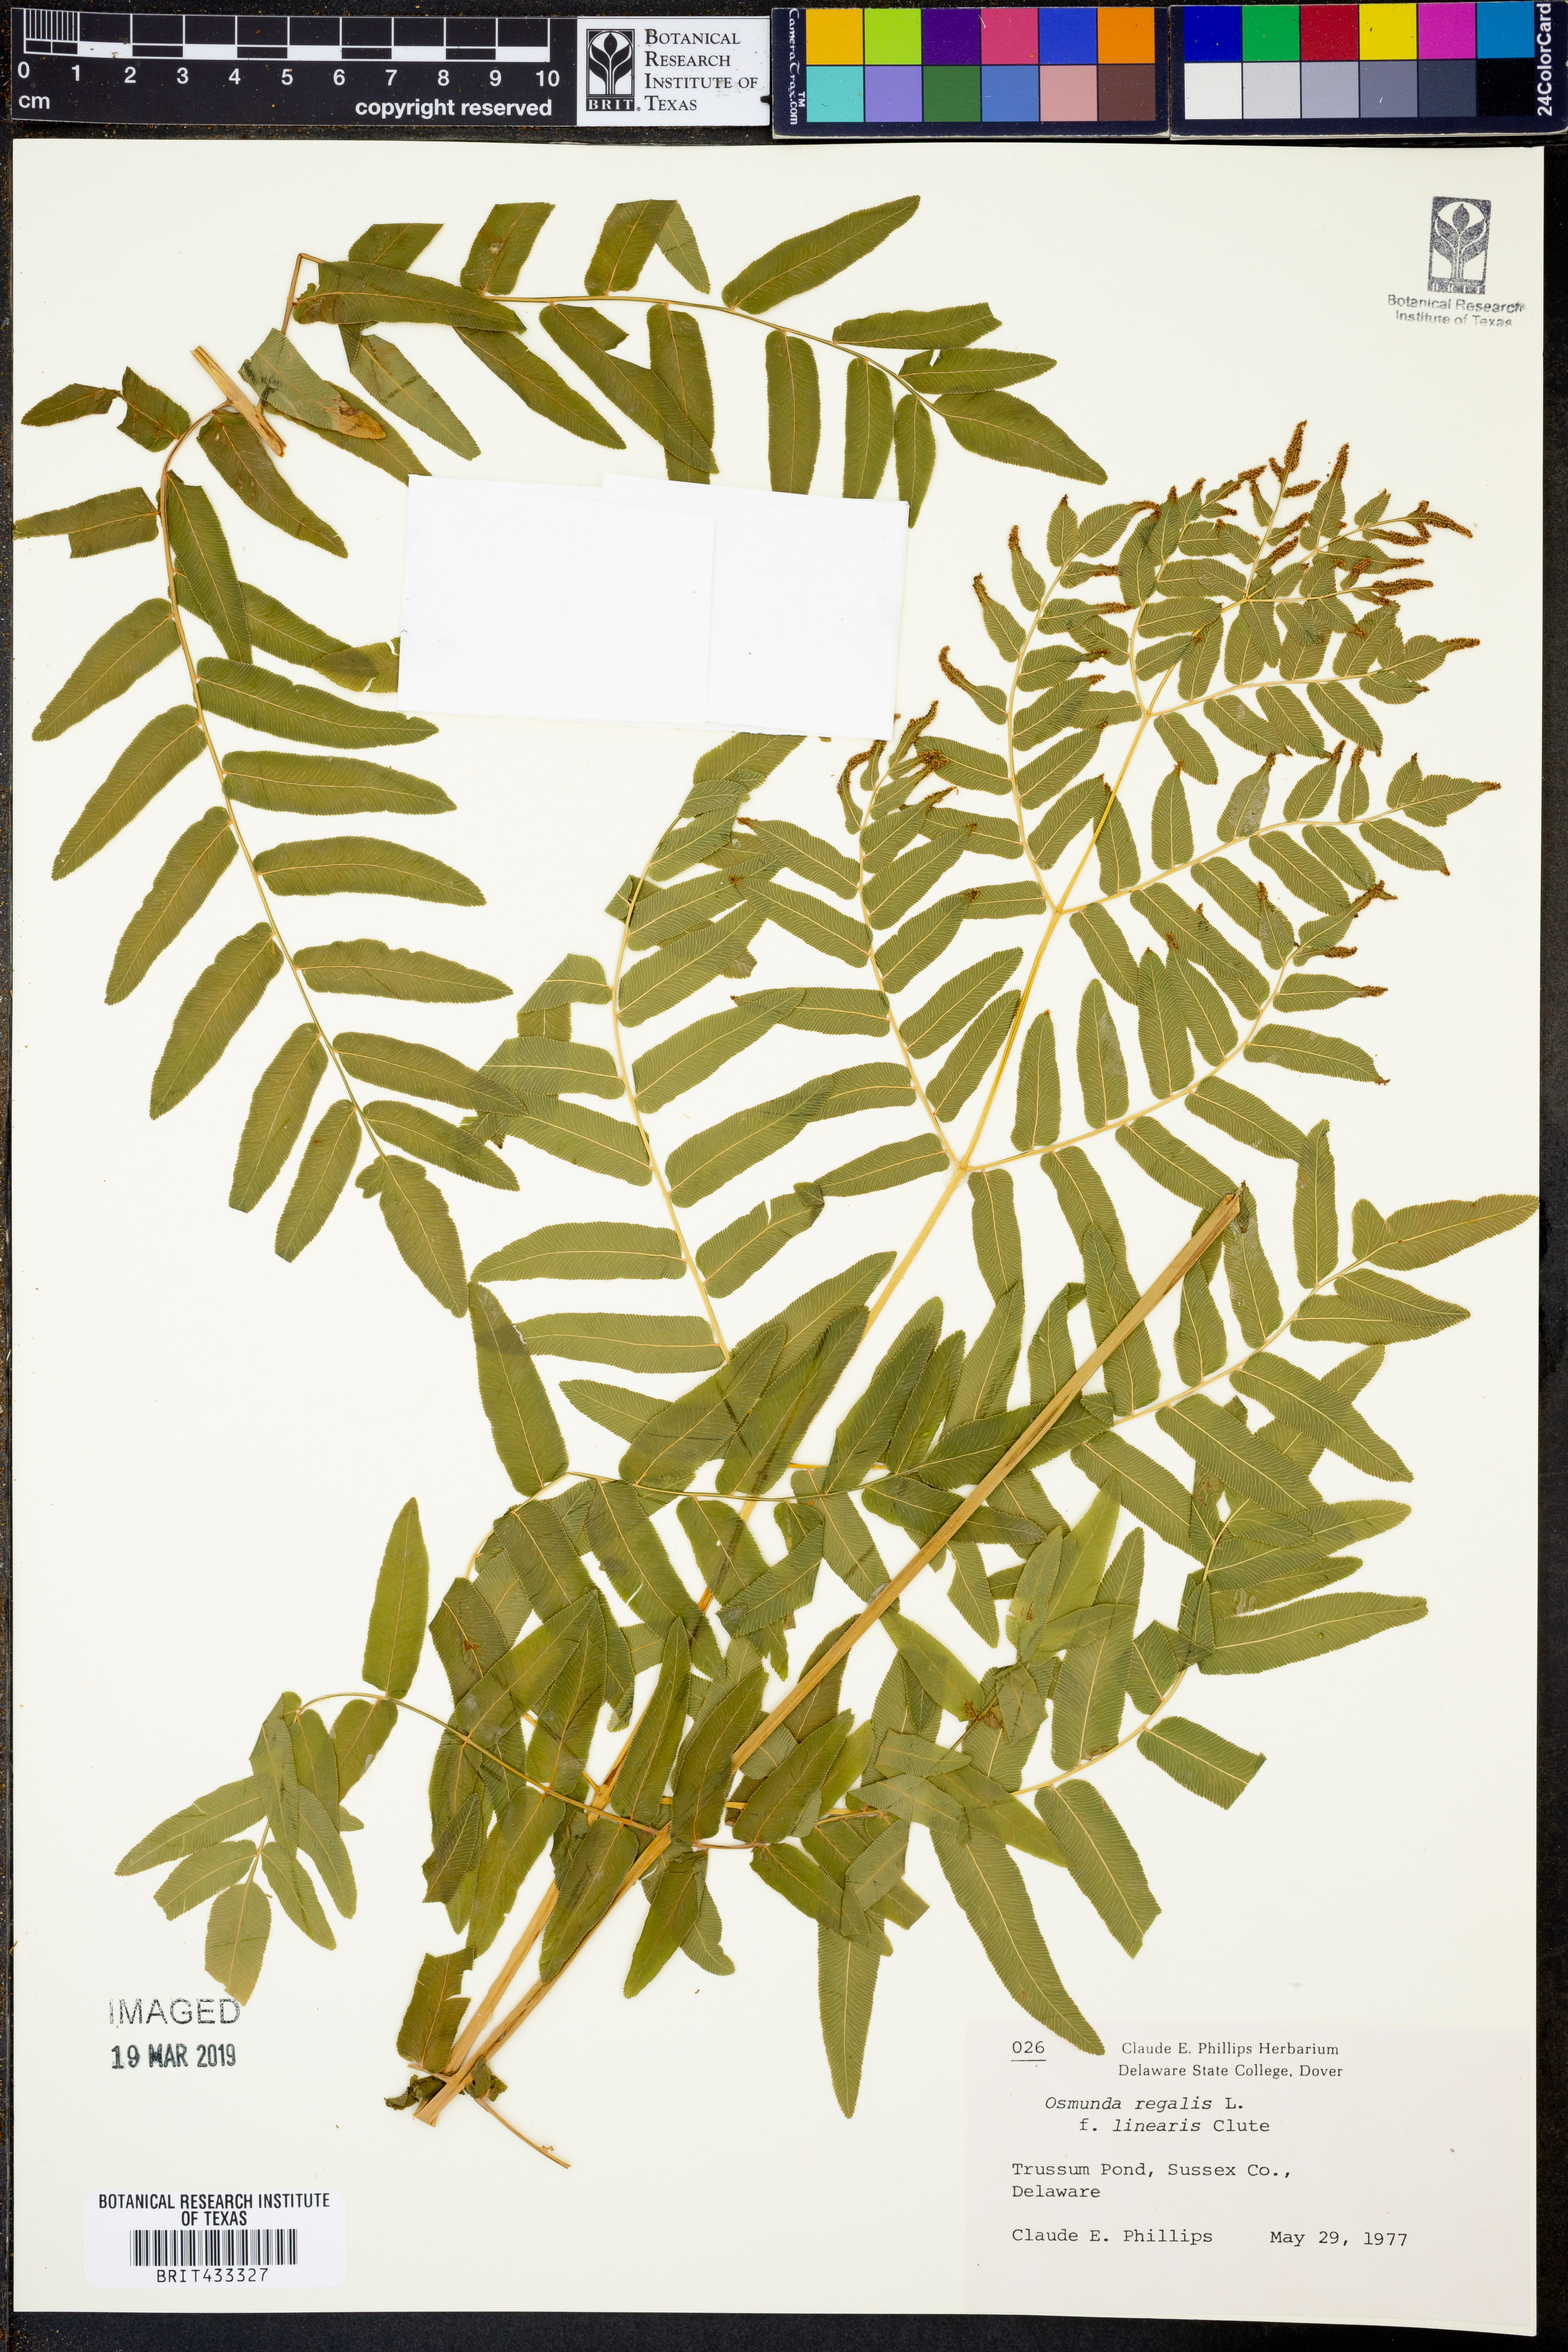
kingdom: Plantae
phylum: Tracheophyta
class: Polypodiopsida
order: Osmundales
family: Osmundaceae
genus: Osmunda
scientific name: Osmunda spectabilis
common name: American royal fern
